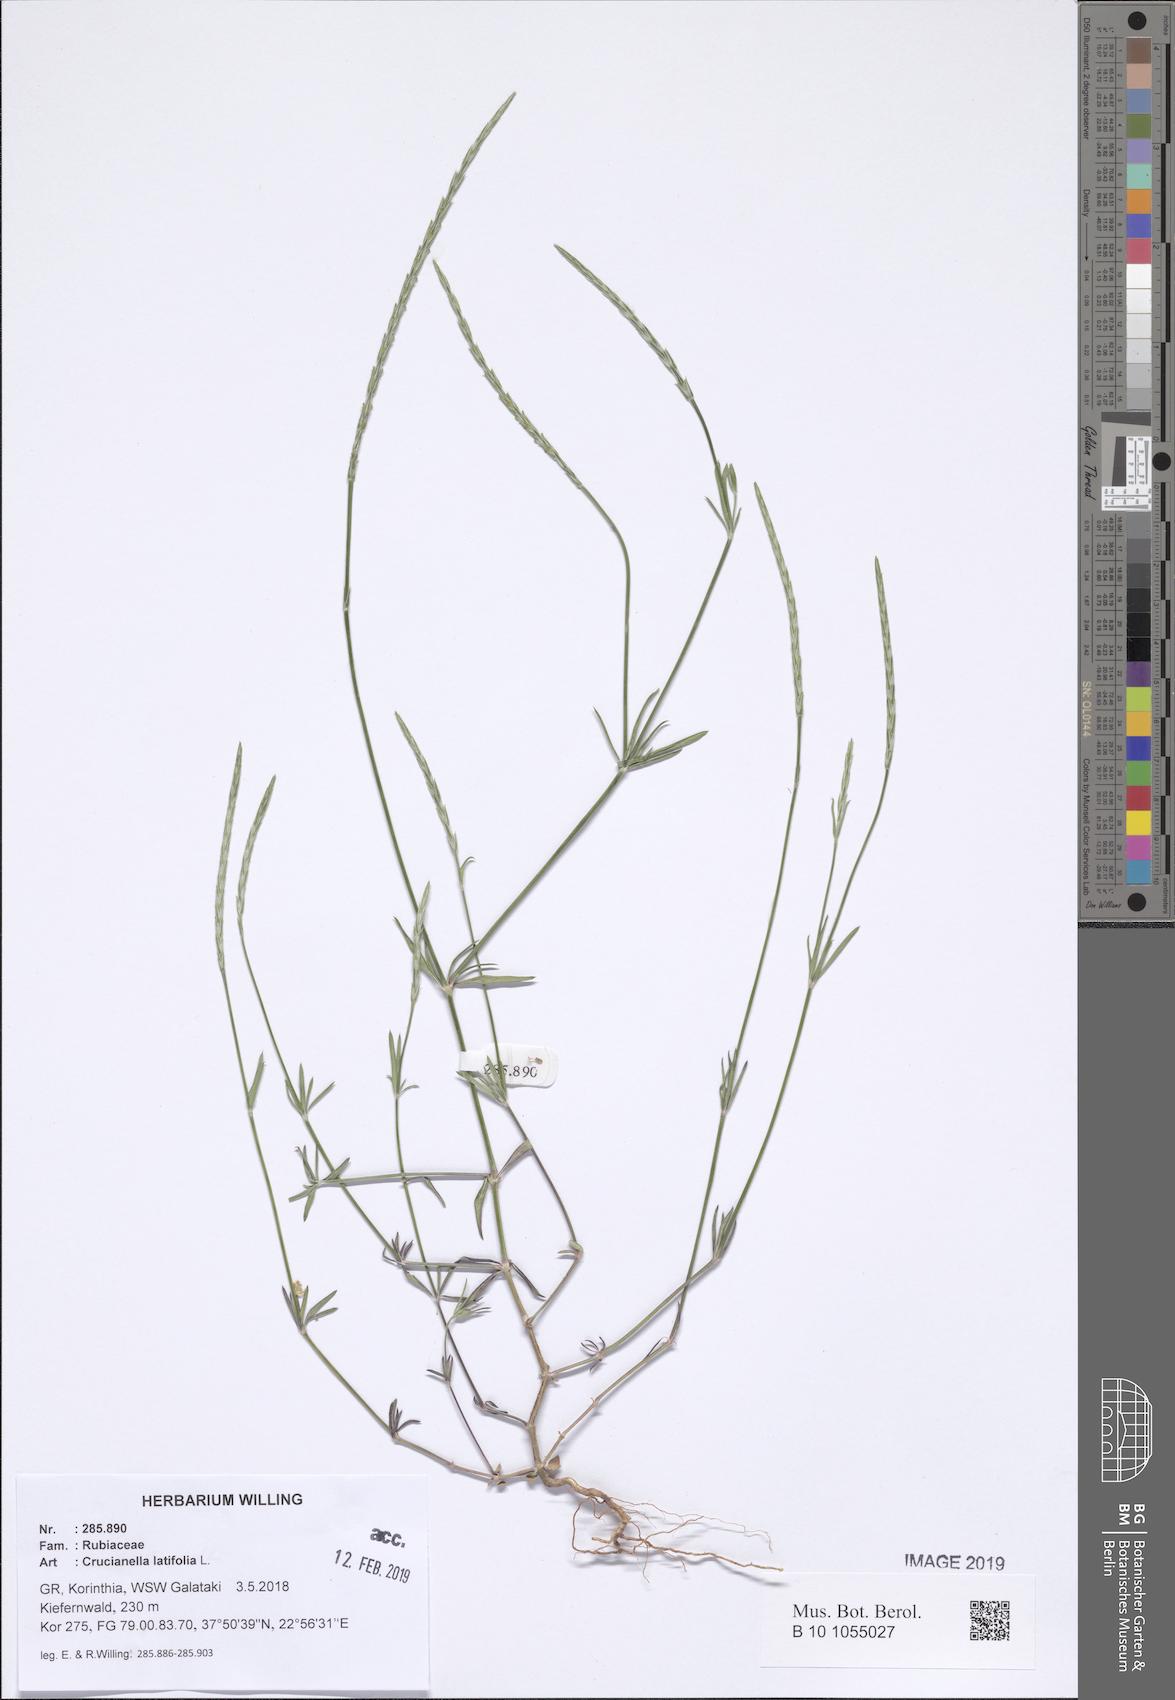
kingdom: Plantae
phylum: Tracheophyta
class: Magnoliopsida
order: Gentianales
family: Rubiaceae
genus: Crucianella
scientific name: Crucianella latifolia
